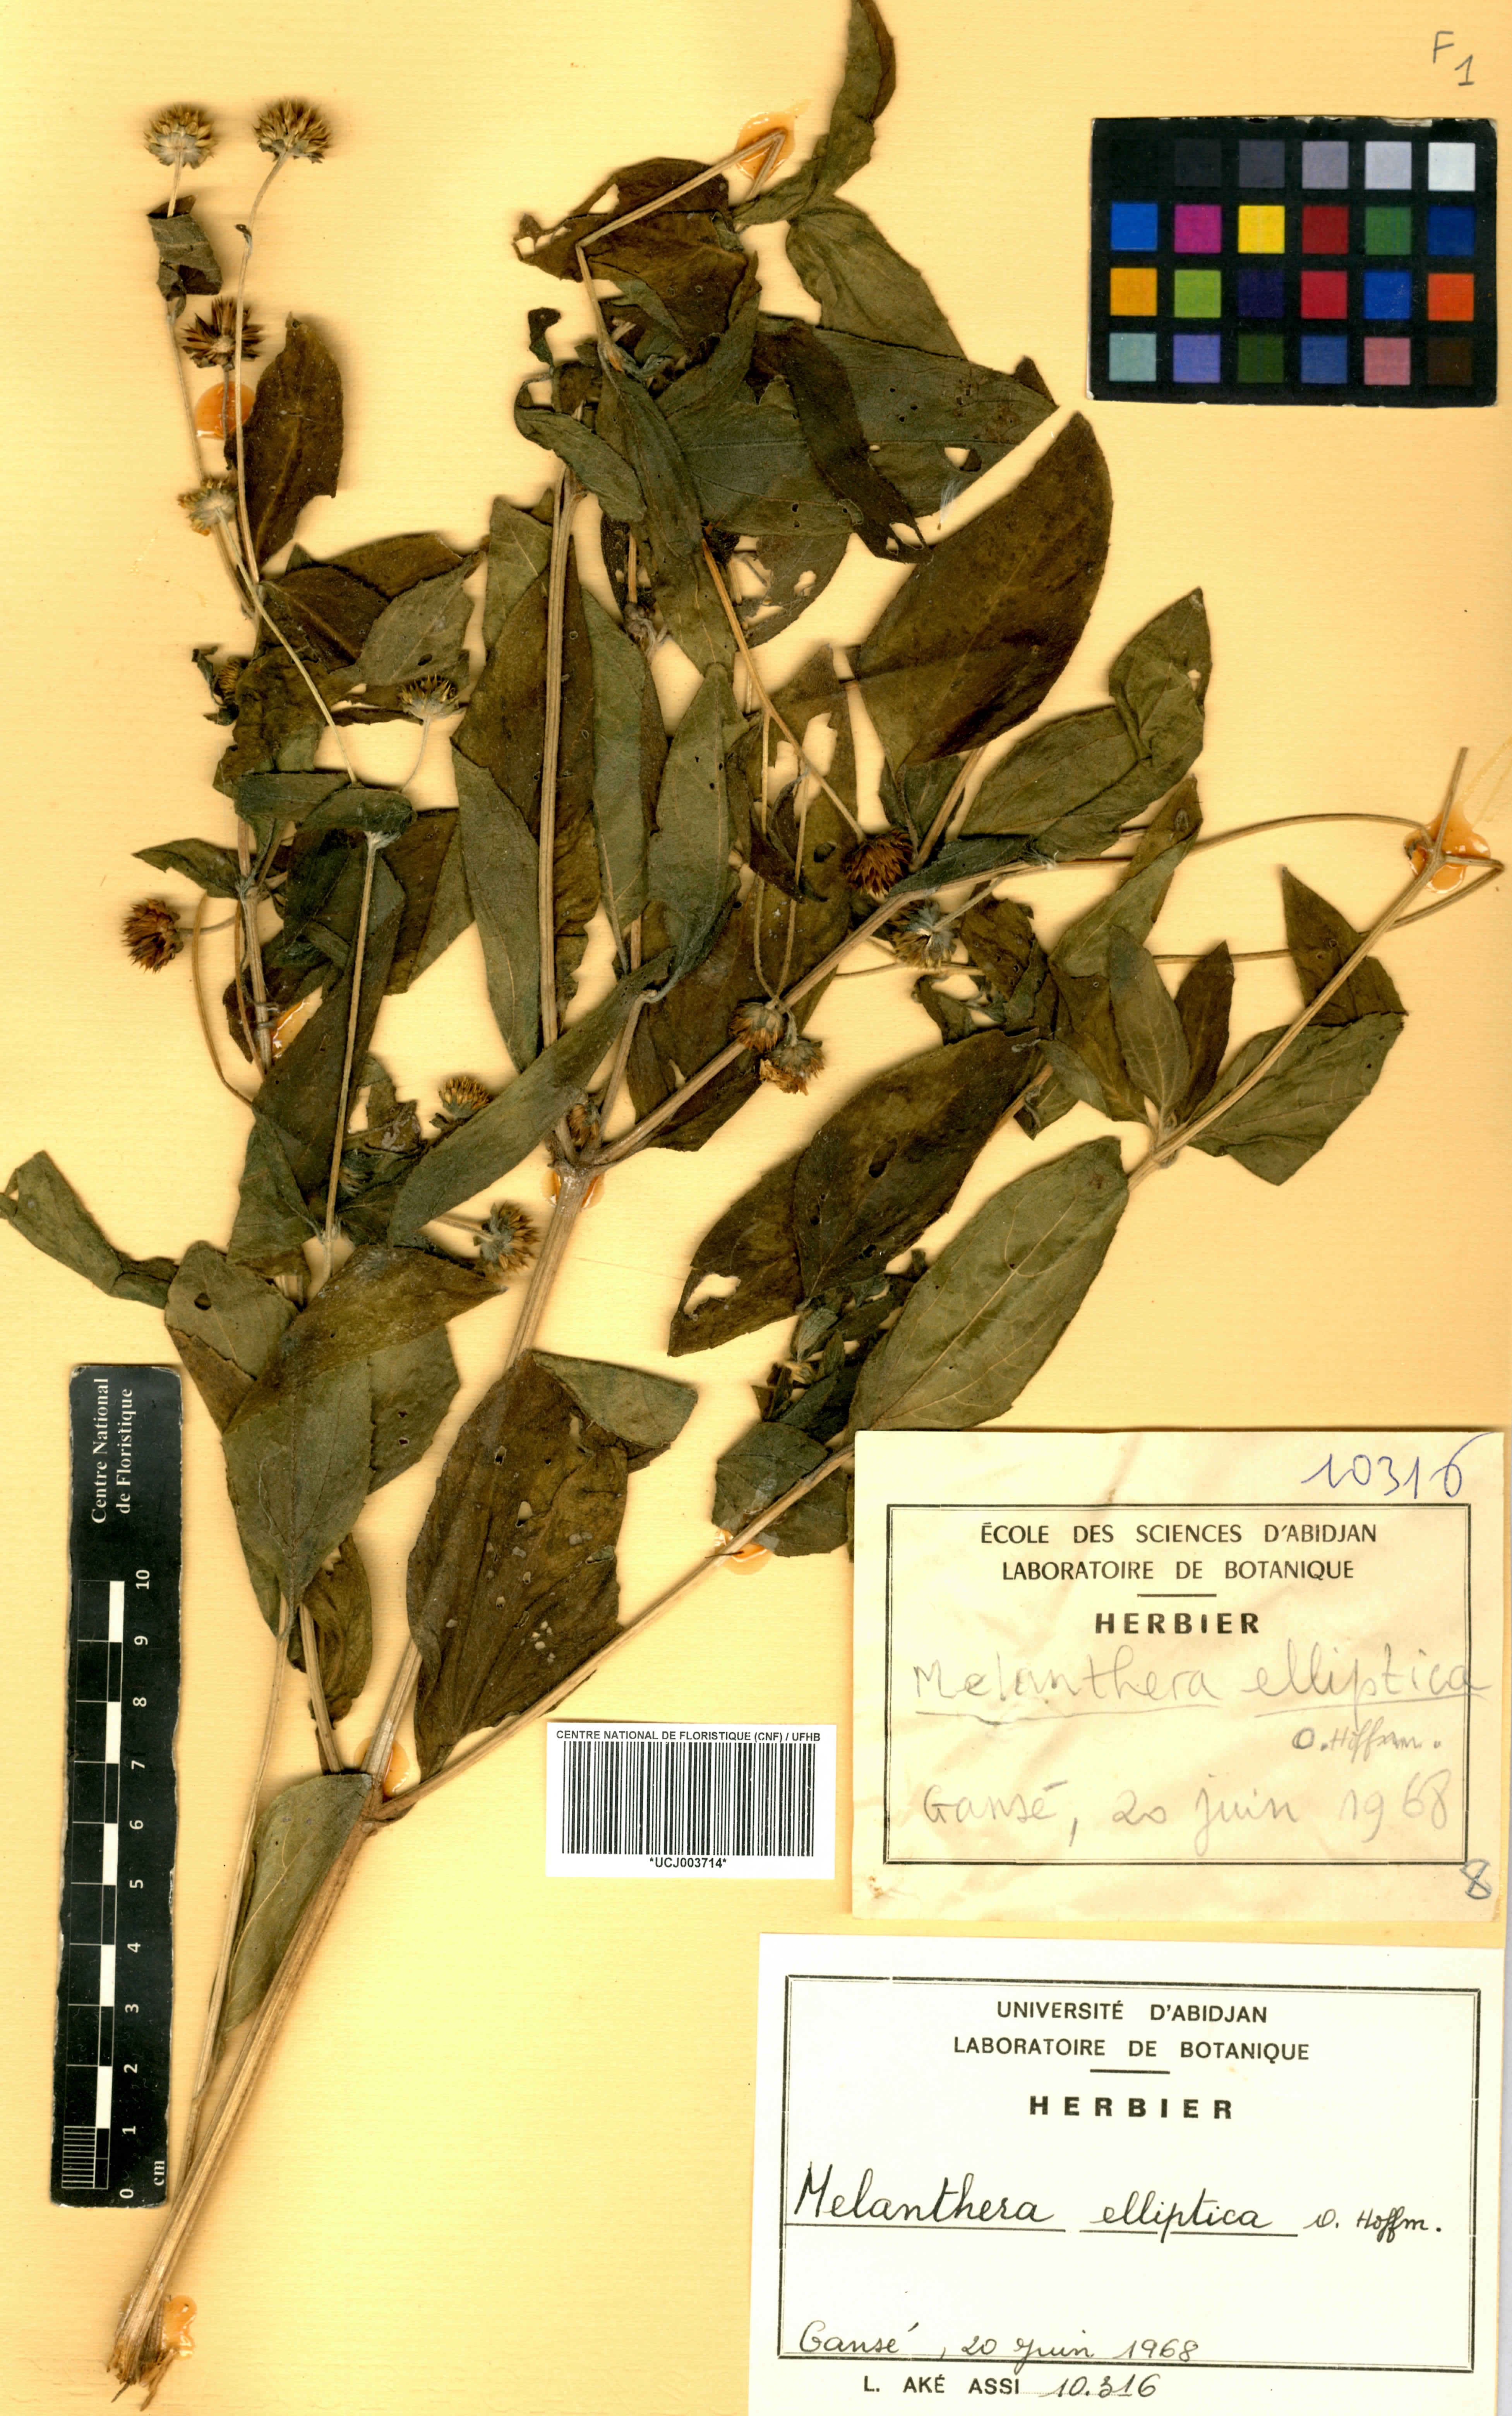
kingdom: Plantae
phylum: Tracheophyta
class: Magnoliopsida
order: Asterales
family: Asteraceae
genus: Lipotriche
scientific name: Lipotriche elliptica
